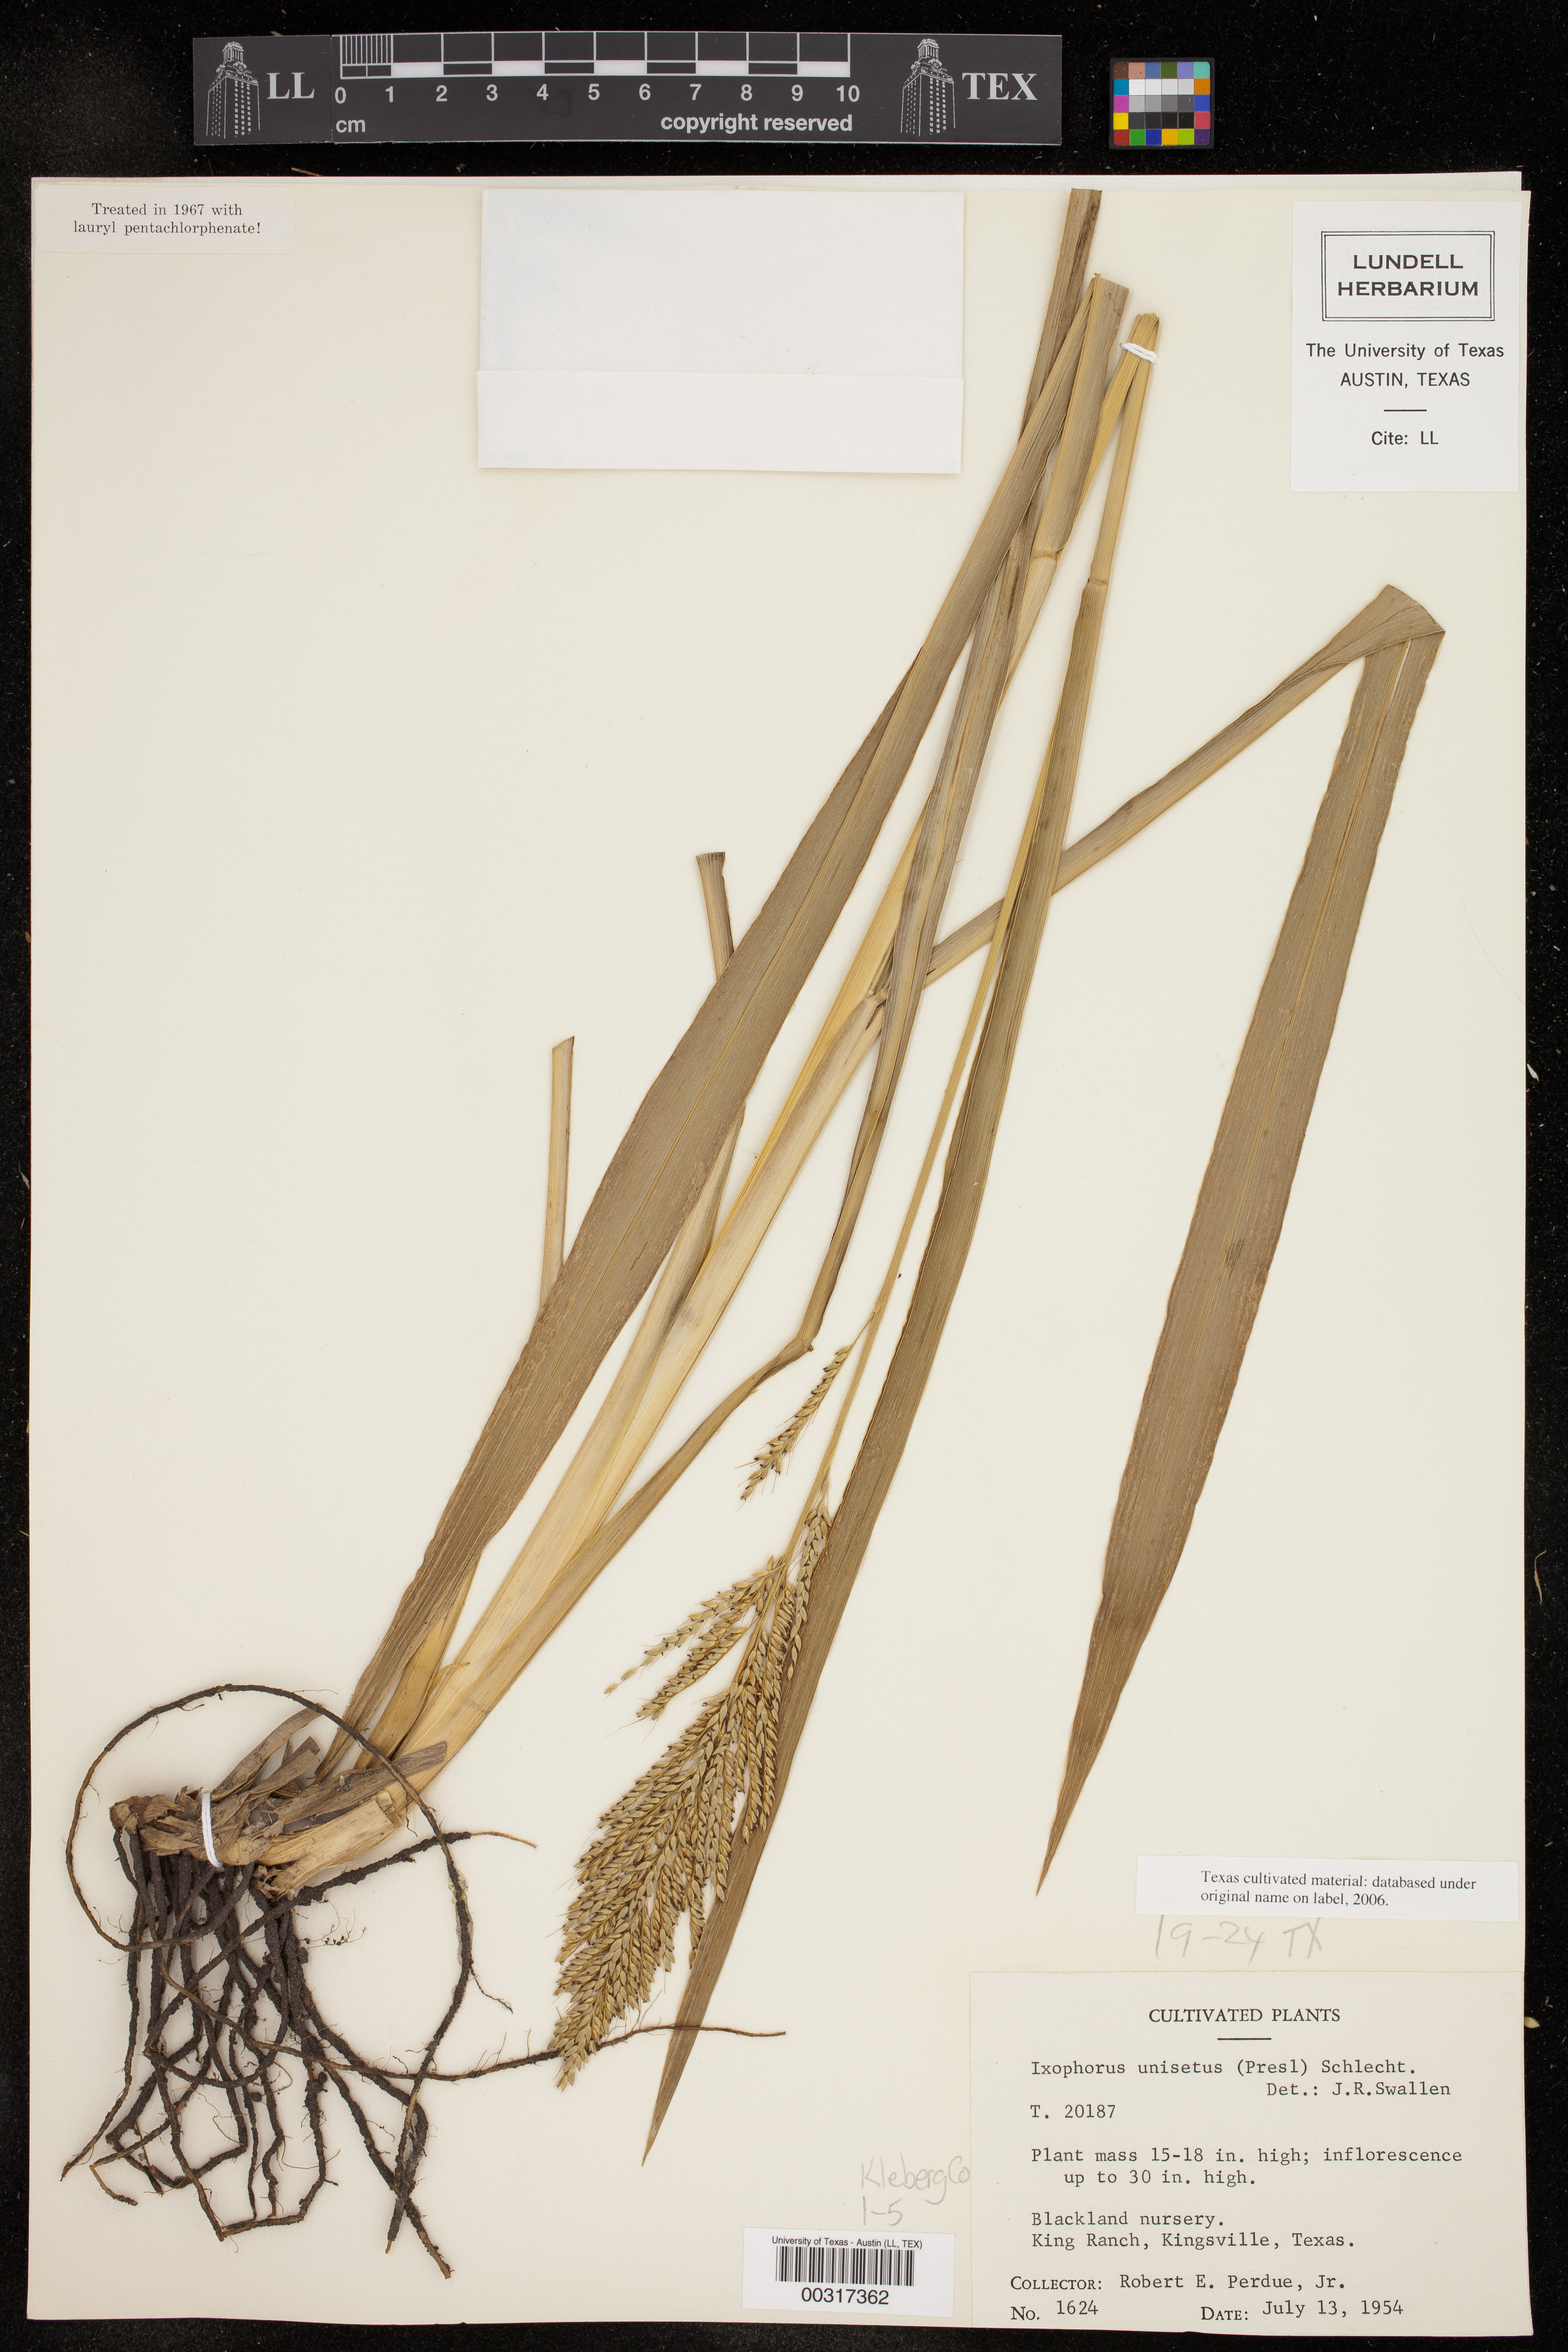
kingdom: Plantae
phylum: Tracheophyta
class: Liliopsida
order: Poales
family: Poaceae
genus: Ixophorus
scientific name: Ixophorus unisetus
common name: Crane grass
